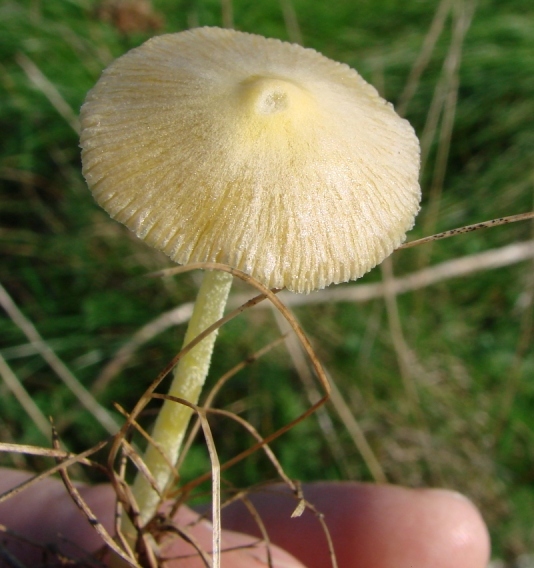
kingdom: Fungi
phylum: Basidiomycota
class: Agaricomycetes
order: Agaricales
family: Bolbitiaceae
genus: Bolbitius
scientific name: Bolbitius titubans
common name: almindelig gulhat
